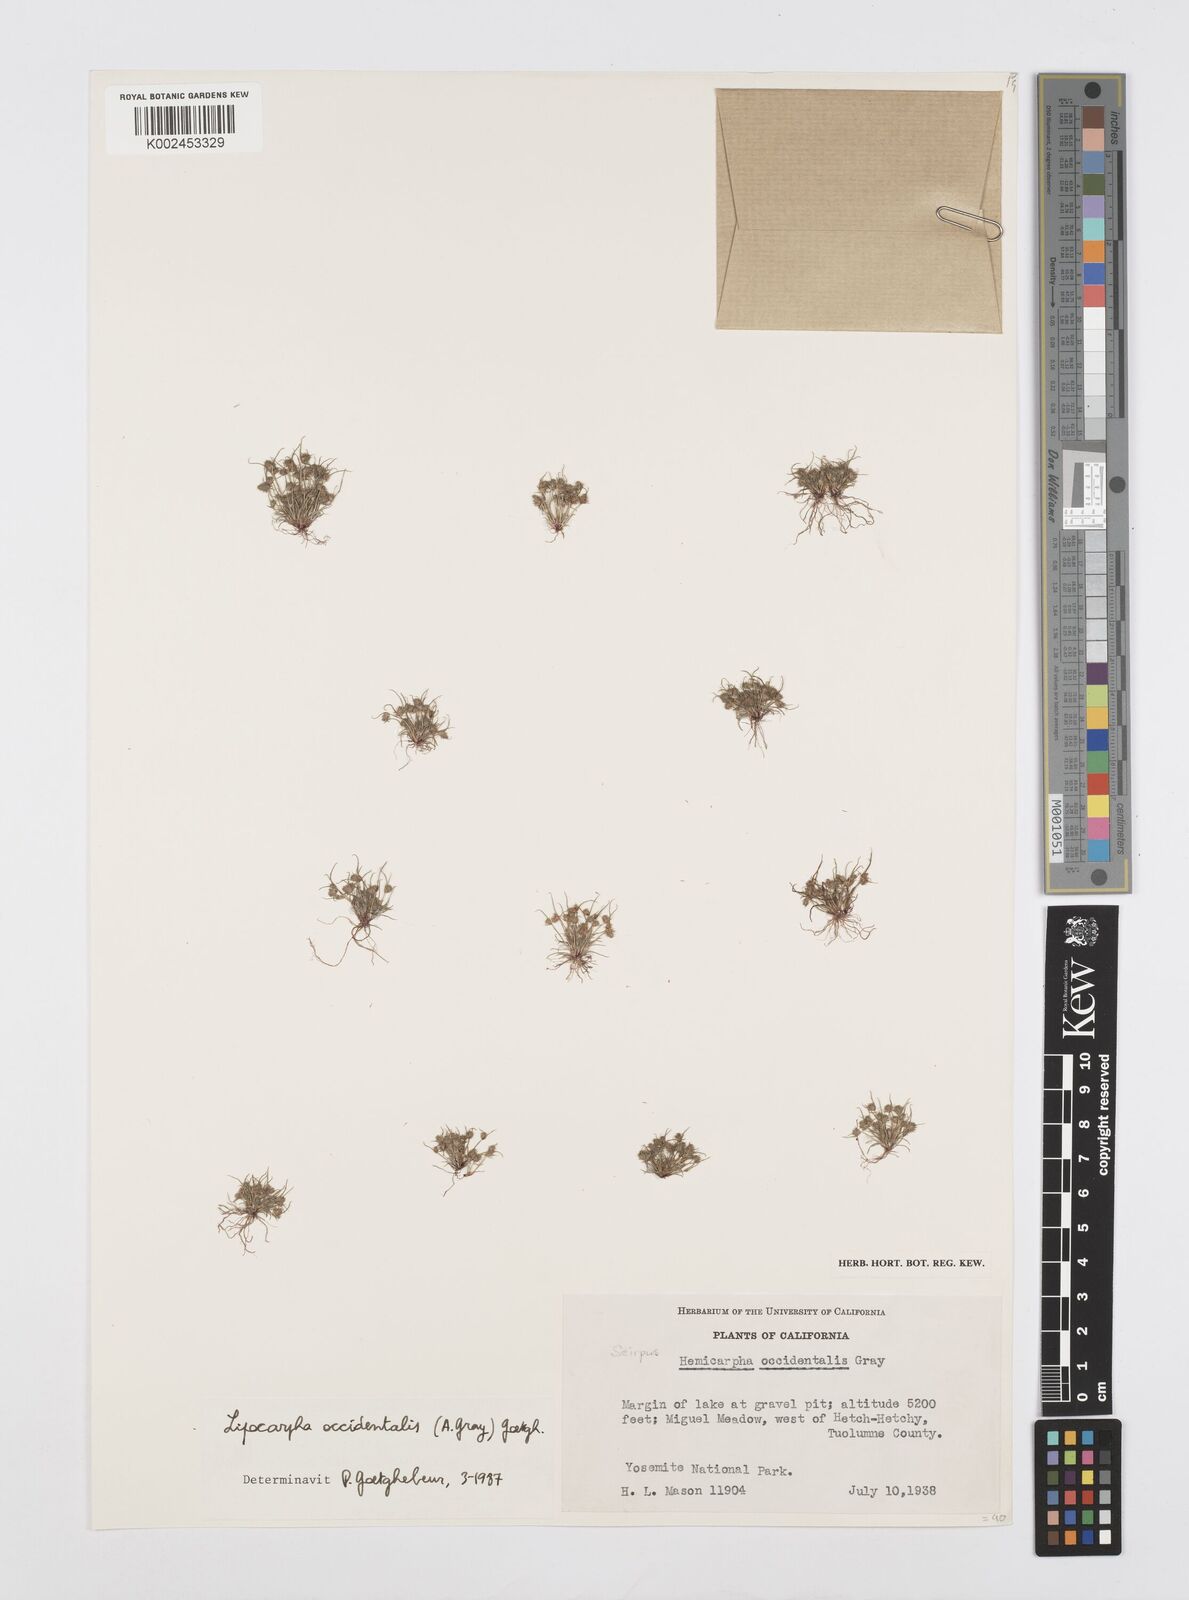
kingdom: Plantae
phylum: Tracheophyta
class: Liliopsida
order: Poales
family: Cyperaceae
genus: Cyperus
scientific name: Cyperus erythrorhizos
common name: Red-root flat sedge
